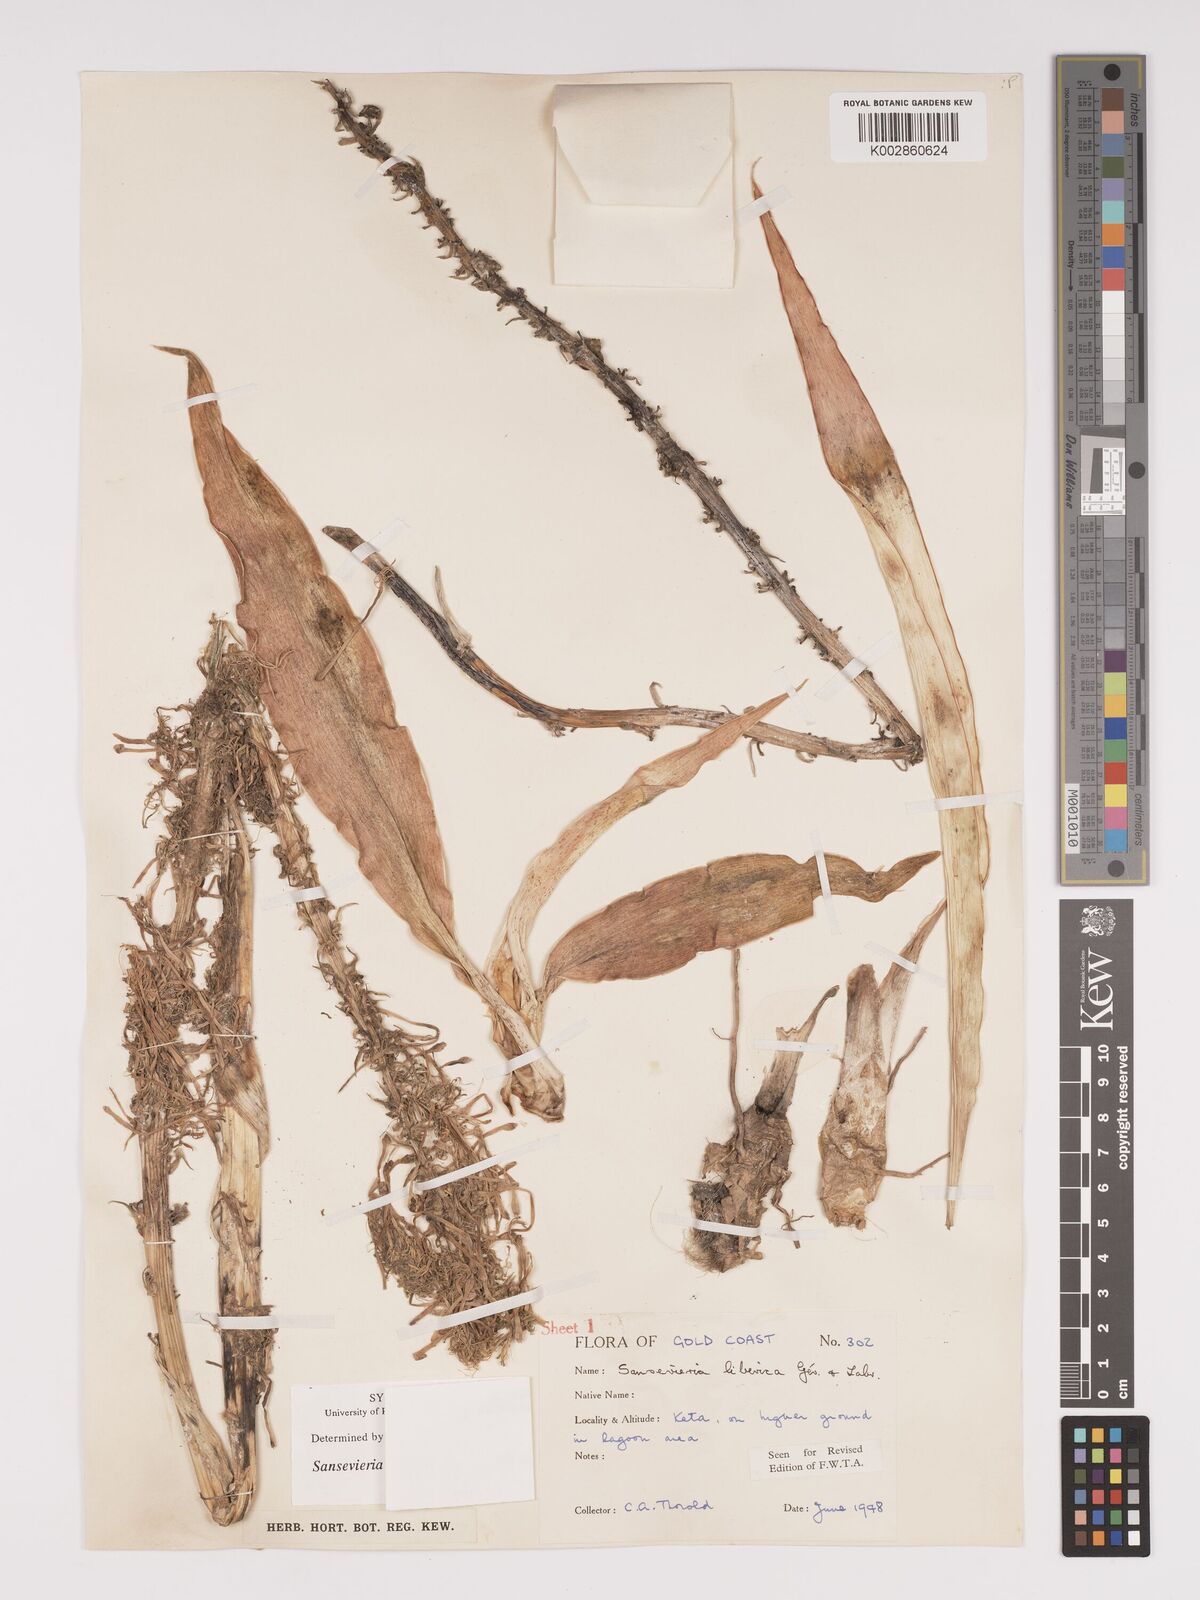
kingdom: Plantae
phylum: Tracheophyta
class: Liliopsida
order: Asparagales
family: Asparagaceae
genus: Dracaena
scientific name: Dracaena liberica
